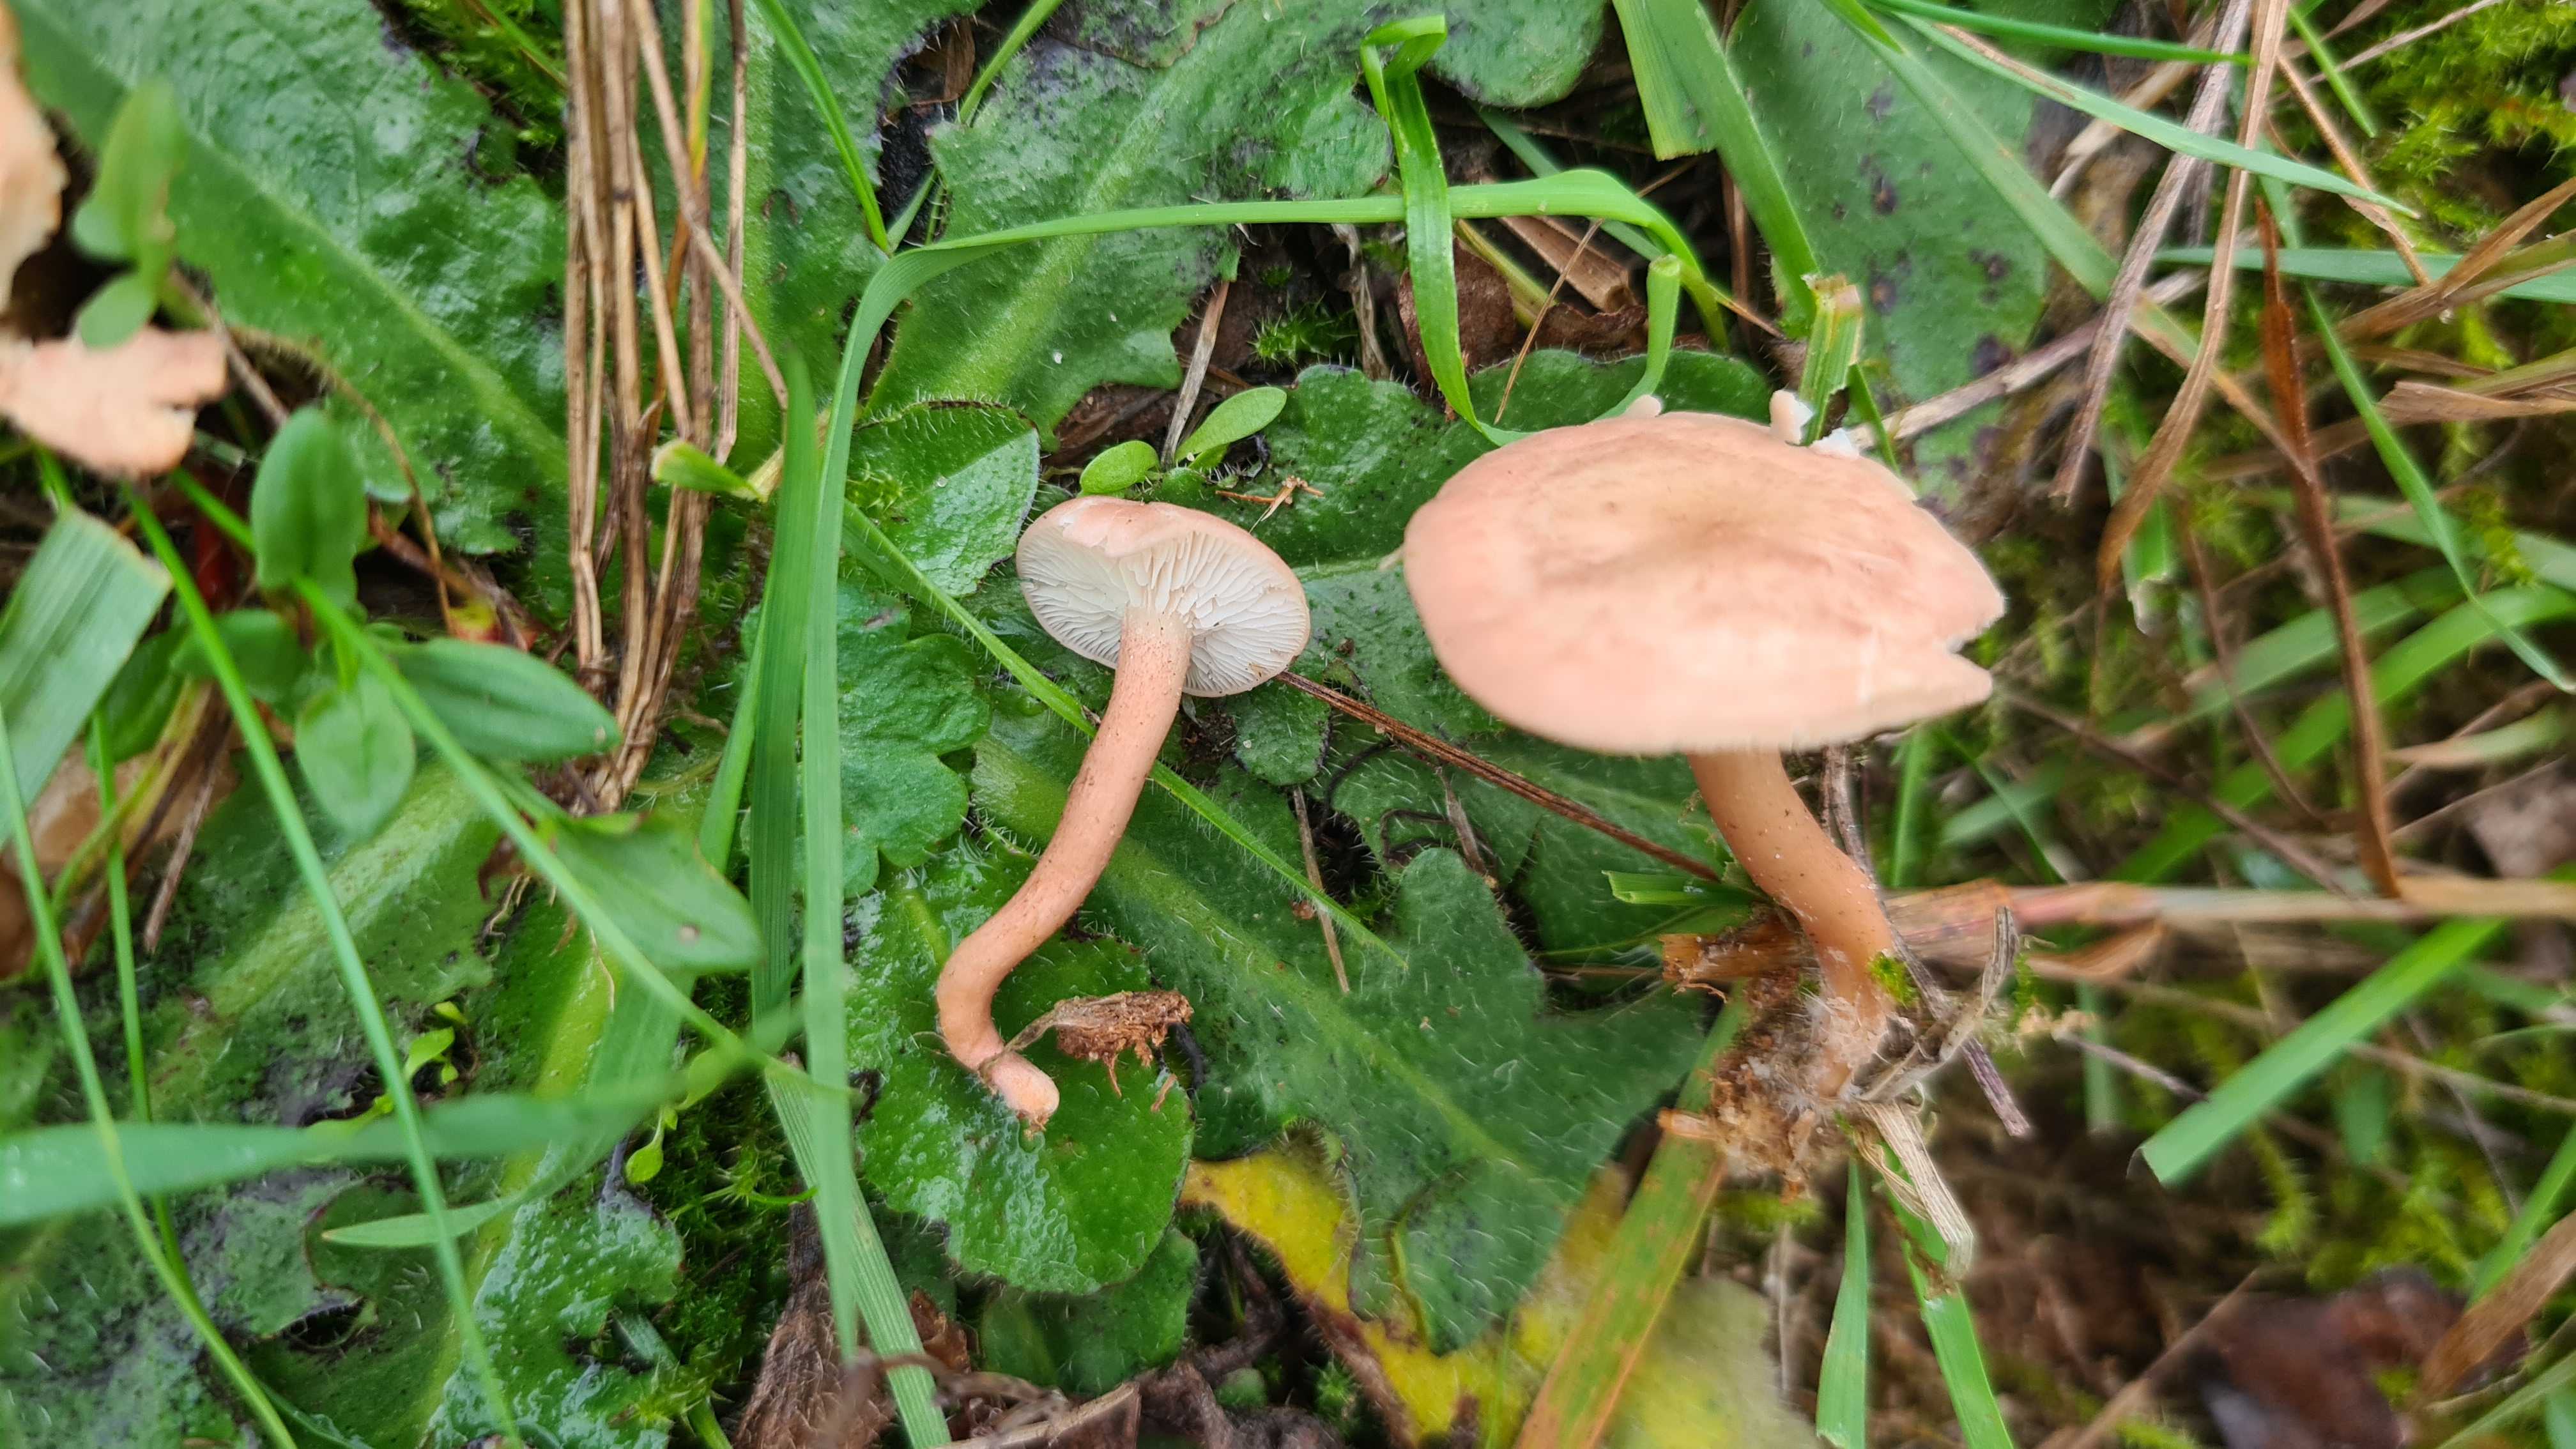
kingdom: Fungi
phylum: Basidiomycota
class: Agaricomycetes
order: Agaricales
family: Lyophyllaceae
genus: Calocybe
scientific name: Calocybe carnea
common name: rosa fagerhat
